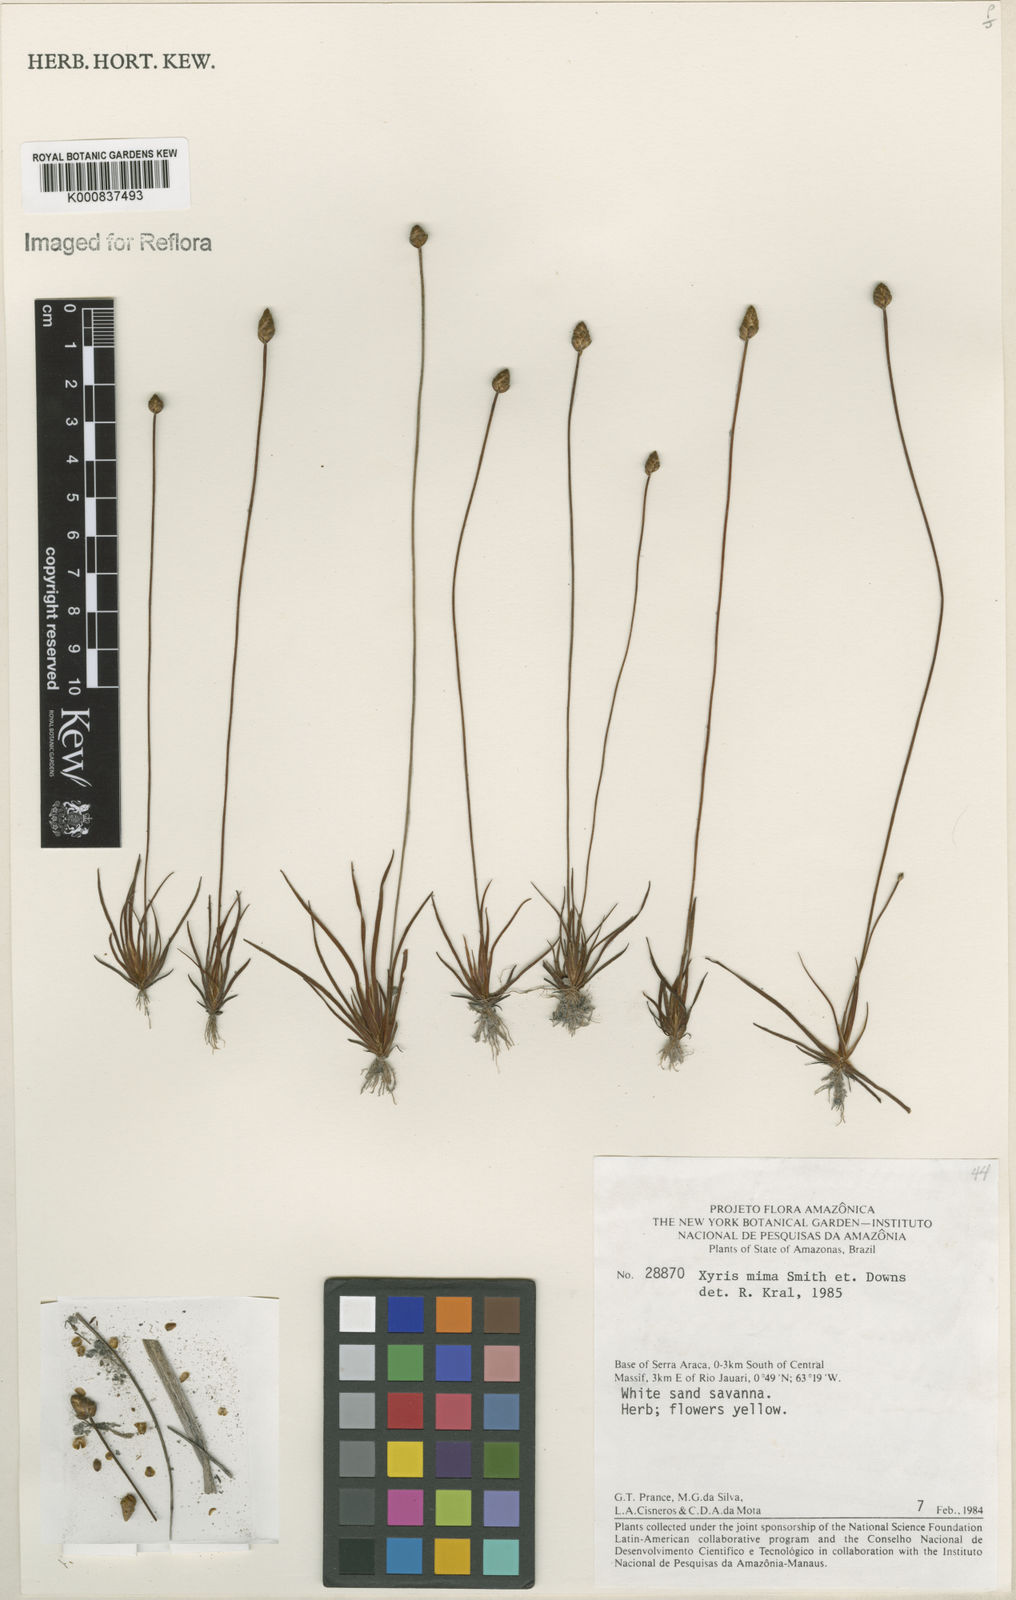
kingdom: Plantae
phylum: Tracheophyta
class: Liliopsida
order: Poales
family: Xyridaceae
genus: Xyris
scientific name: Xyris mima
